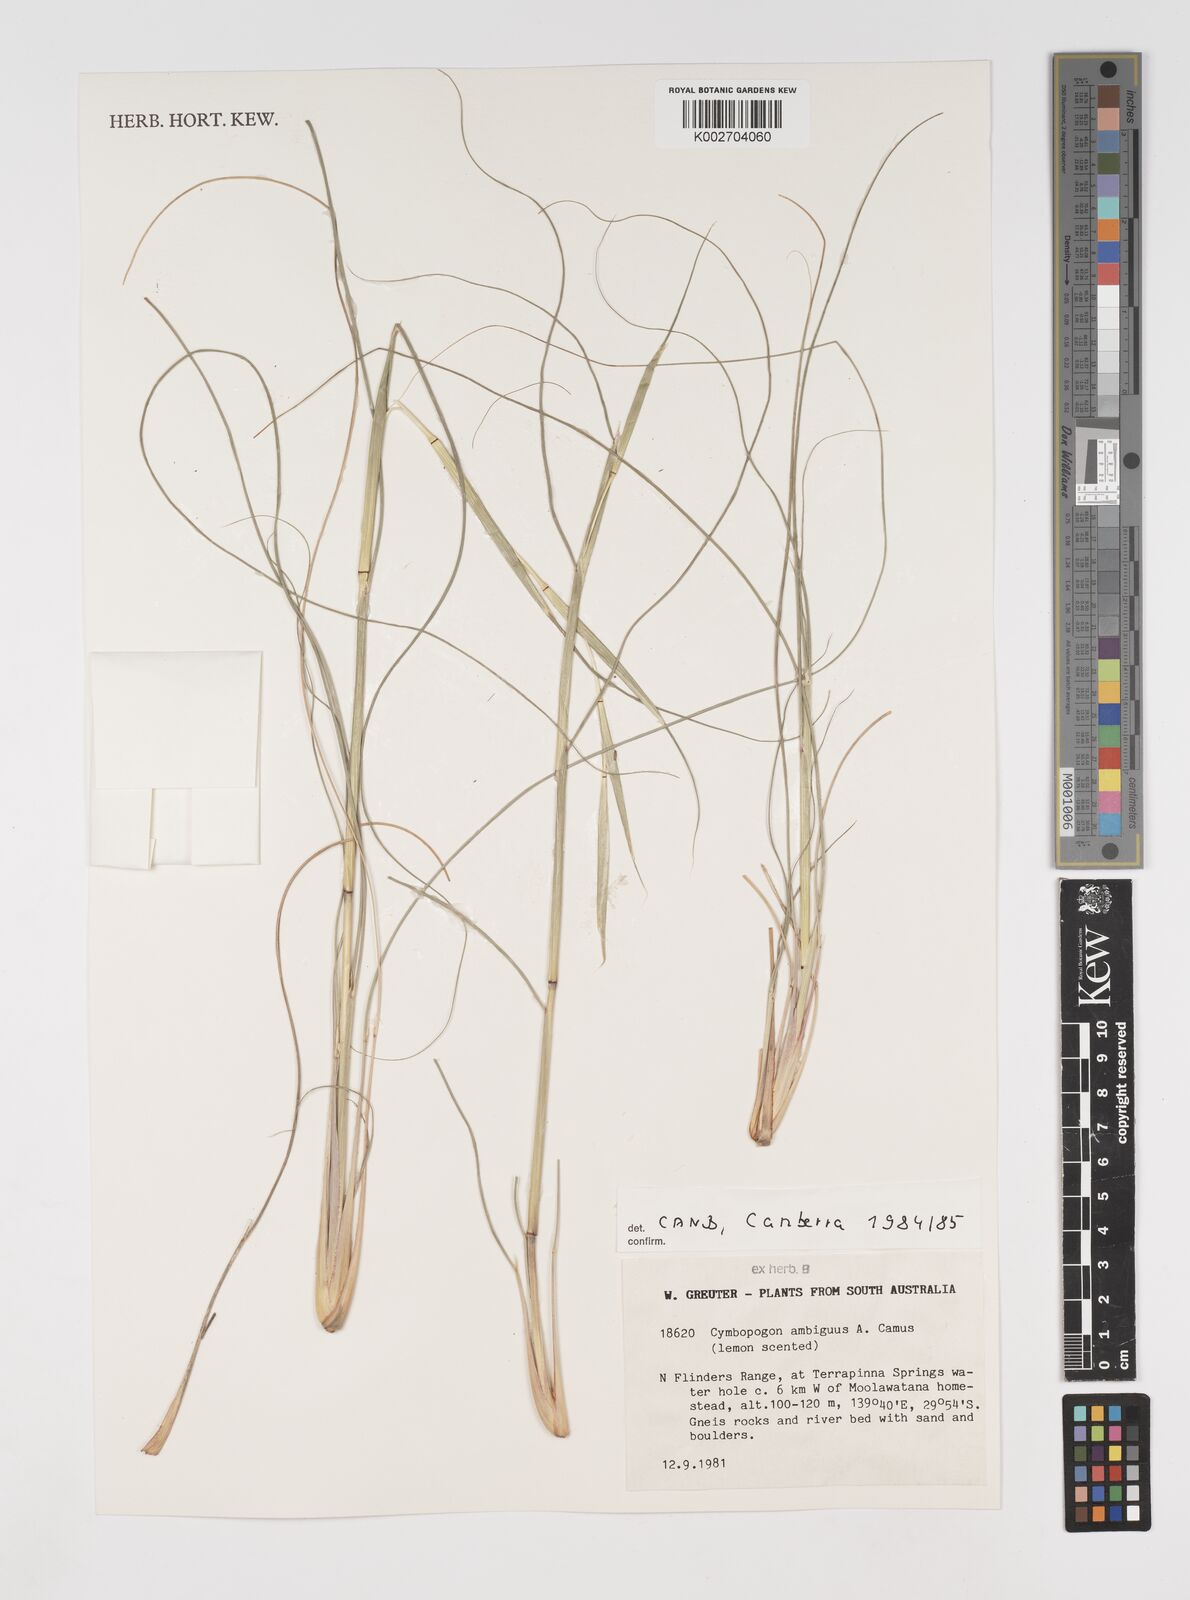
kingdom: Plantae
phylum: Tracheophyta
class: Liliopsida
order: Poales
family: Poaceae
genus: Cymbopogon
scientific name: Cymbopogon ambiguus
